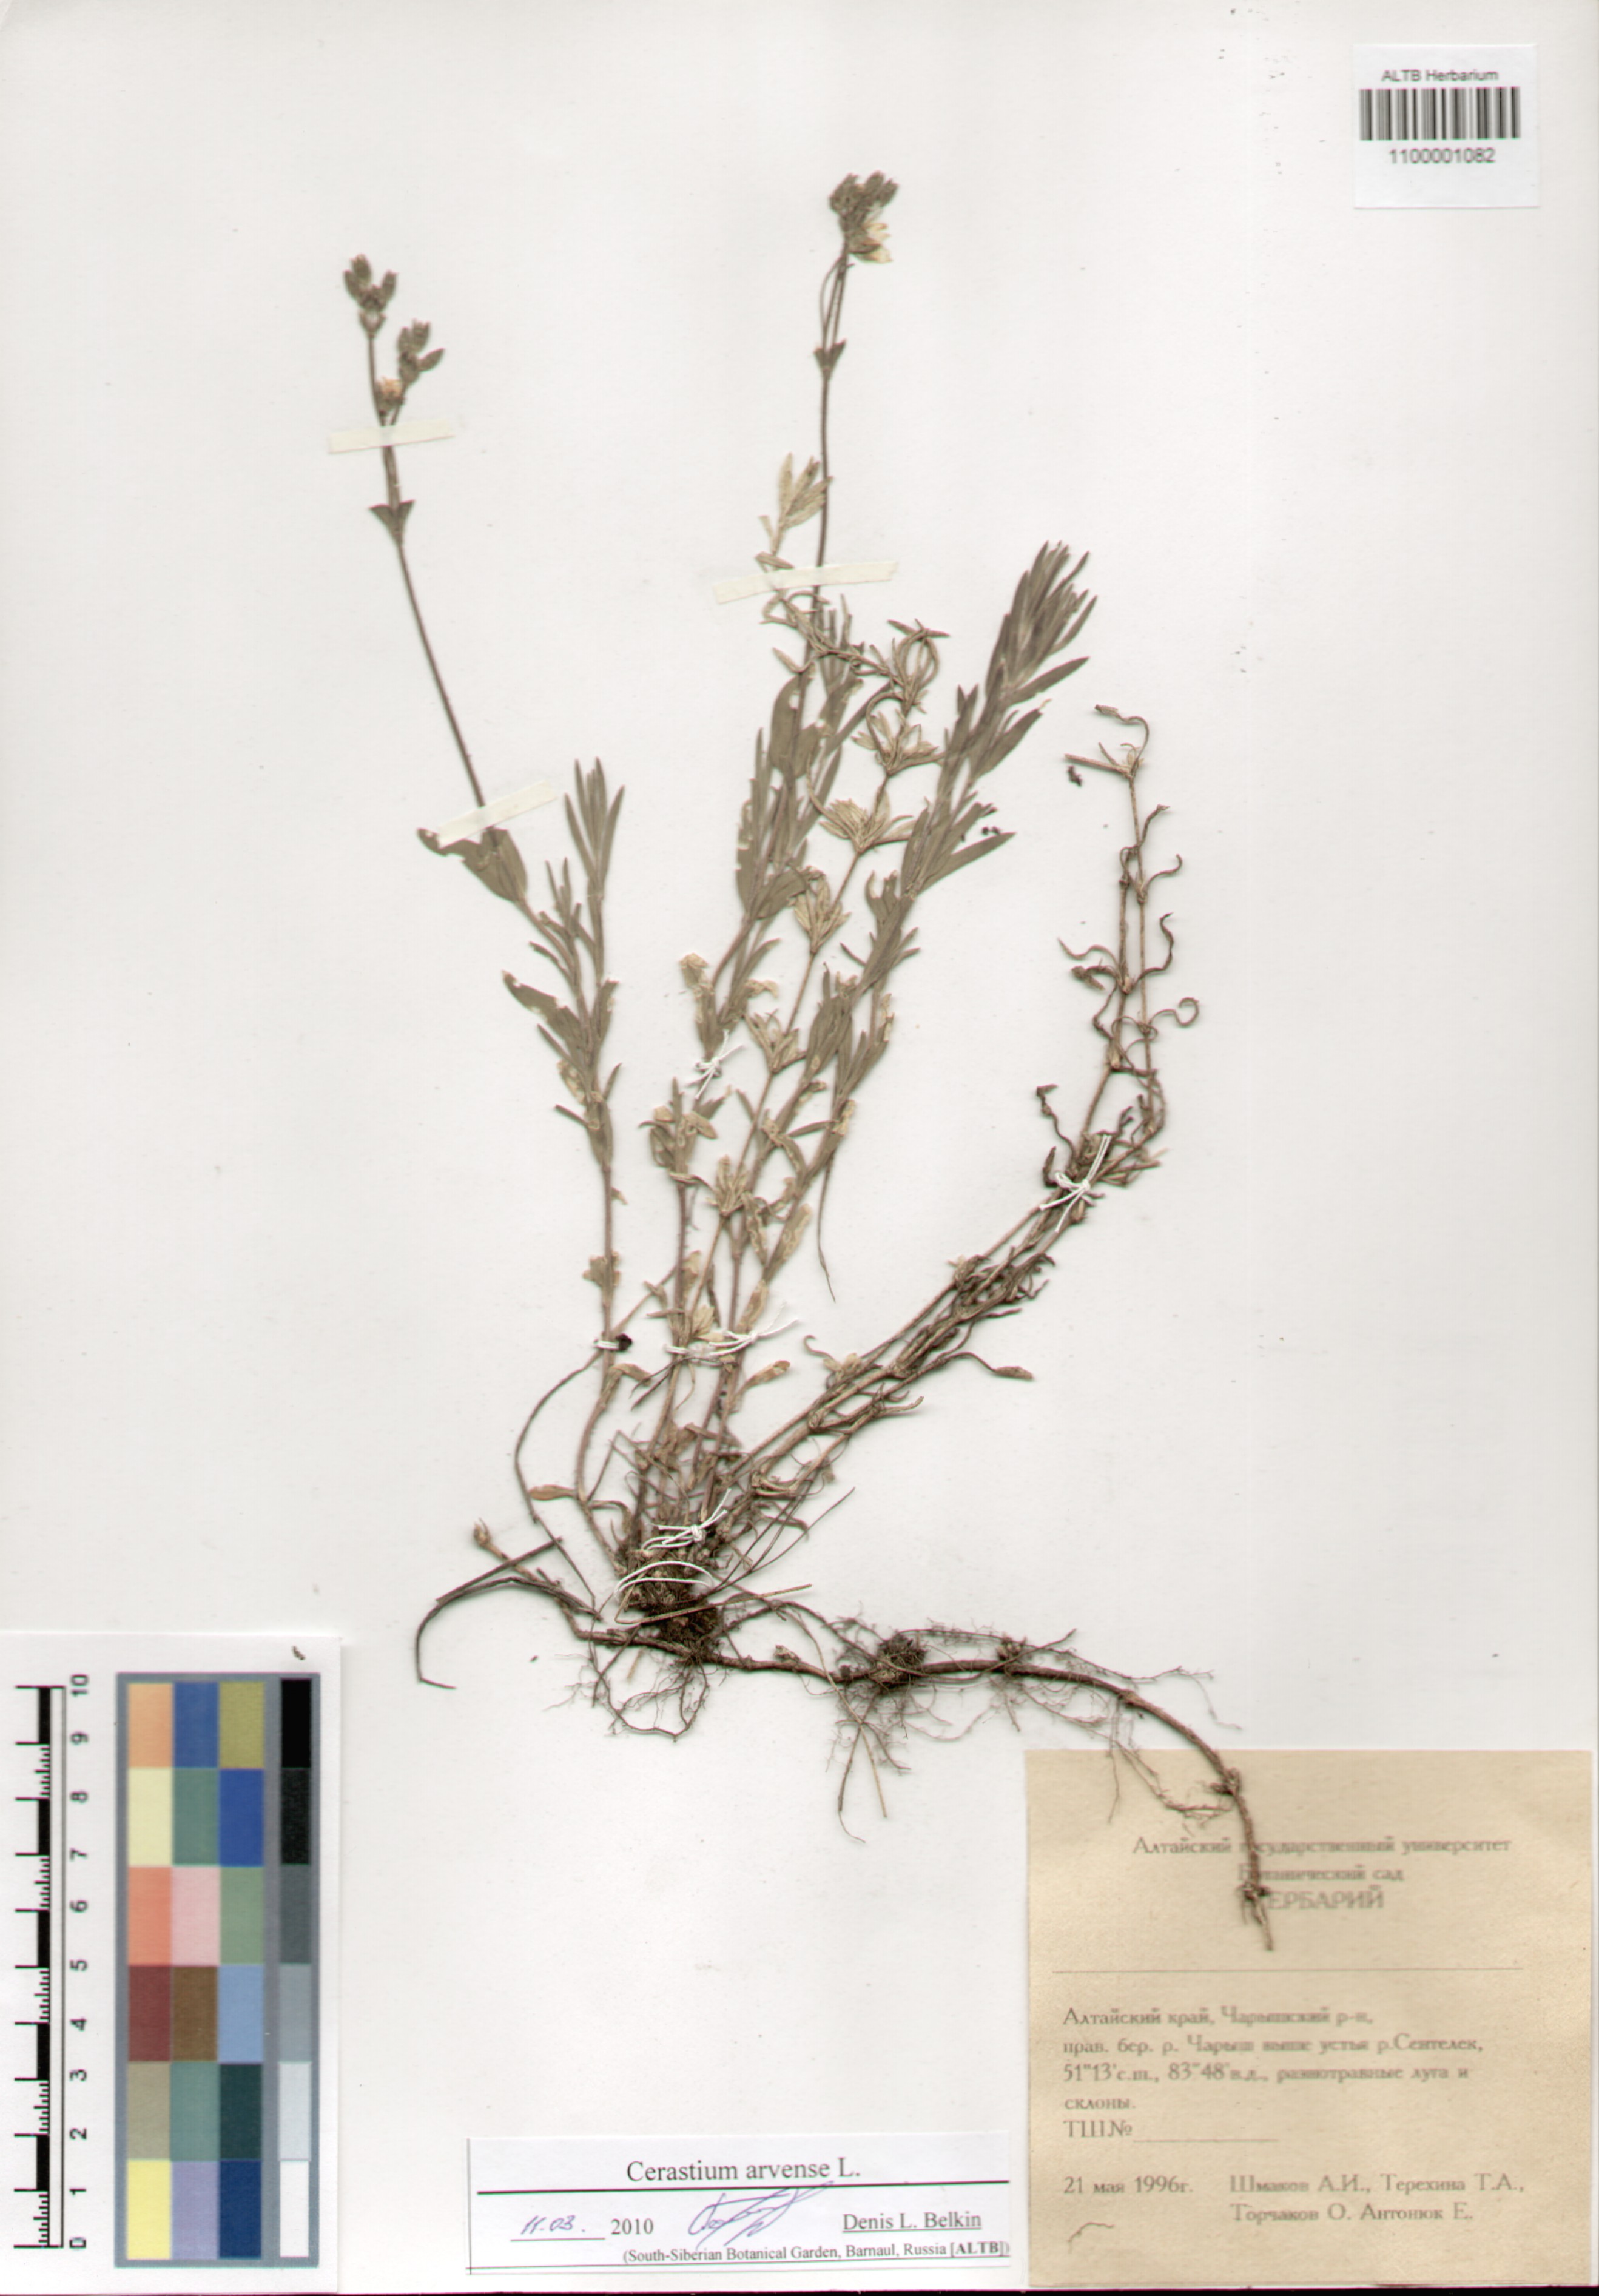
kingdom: Plantae
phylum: Tracheophyta
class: Magnoliopsida
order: Caryophyllales
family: Caryophyllaceae
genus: Cerastium
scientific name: Cerastium arvense
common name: Field mouse-ear
